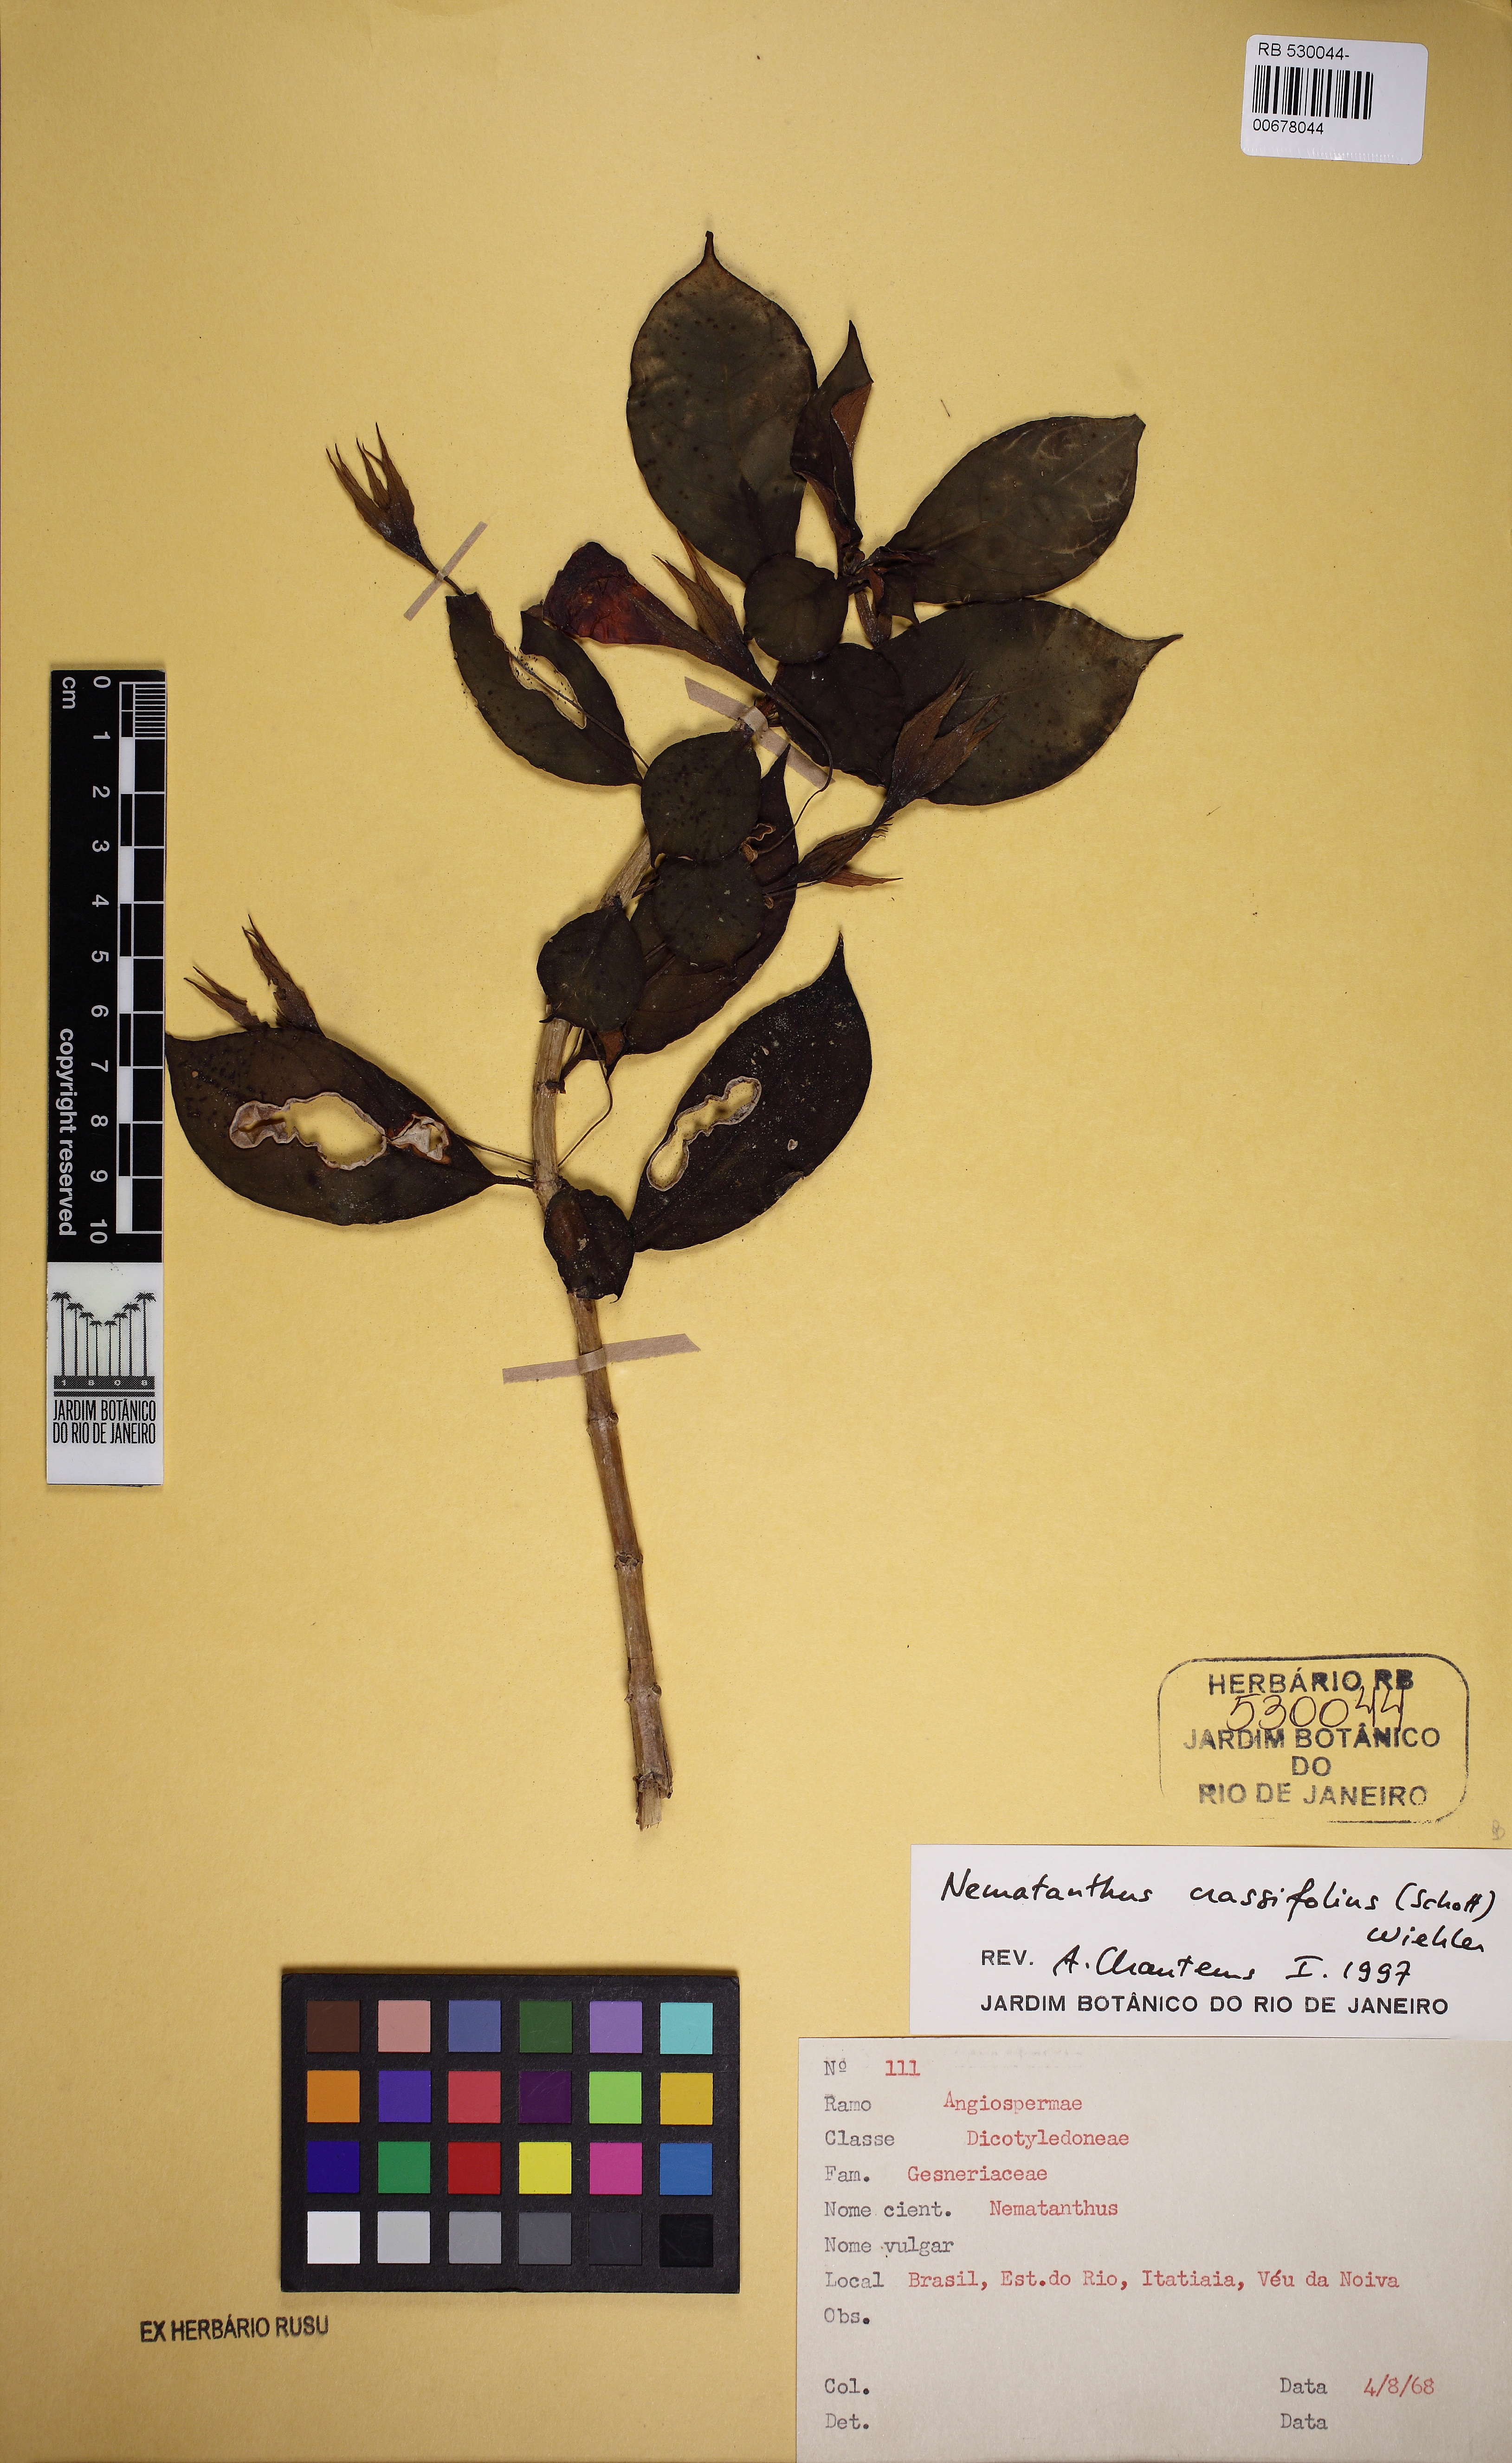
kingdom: Plantae
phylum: Tracheophyta
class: Magnoliopsida
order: Lamiales
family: Gesneriaceae
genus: Nematanthus
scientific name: Nematanthus crassifolius
